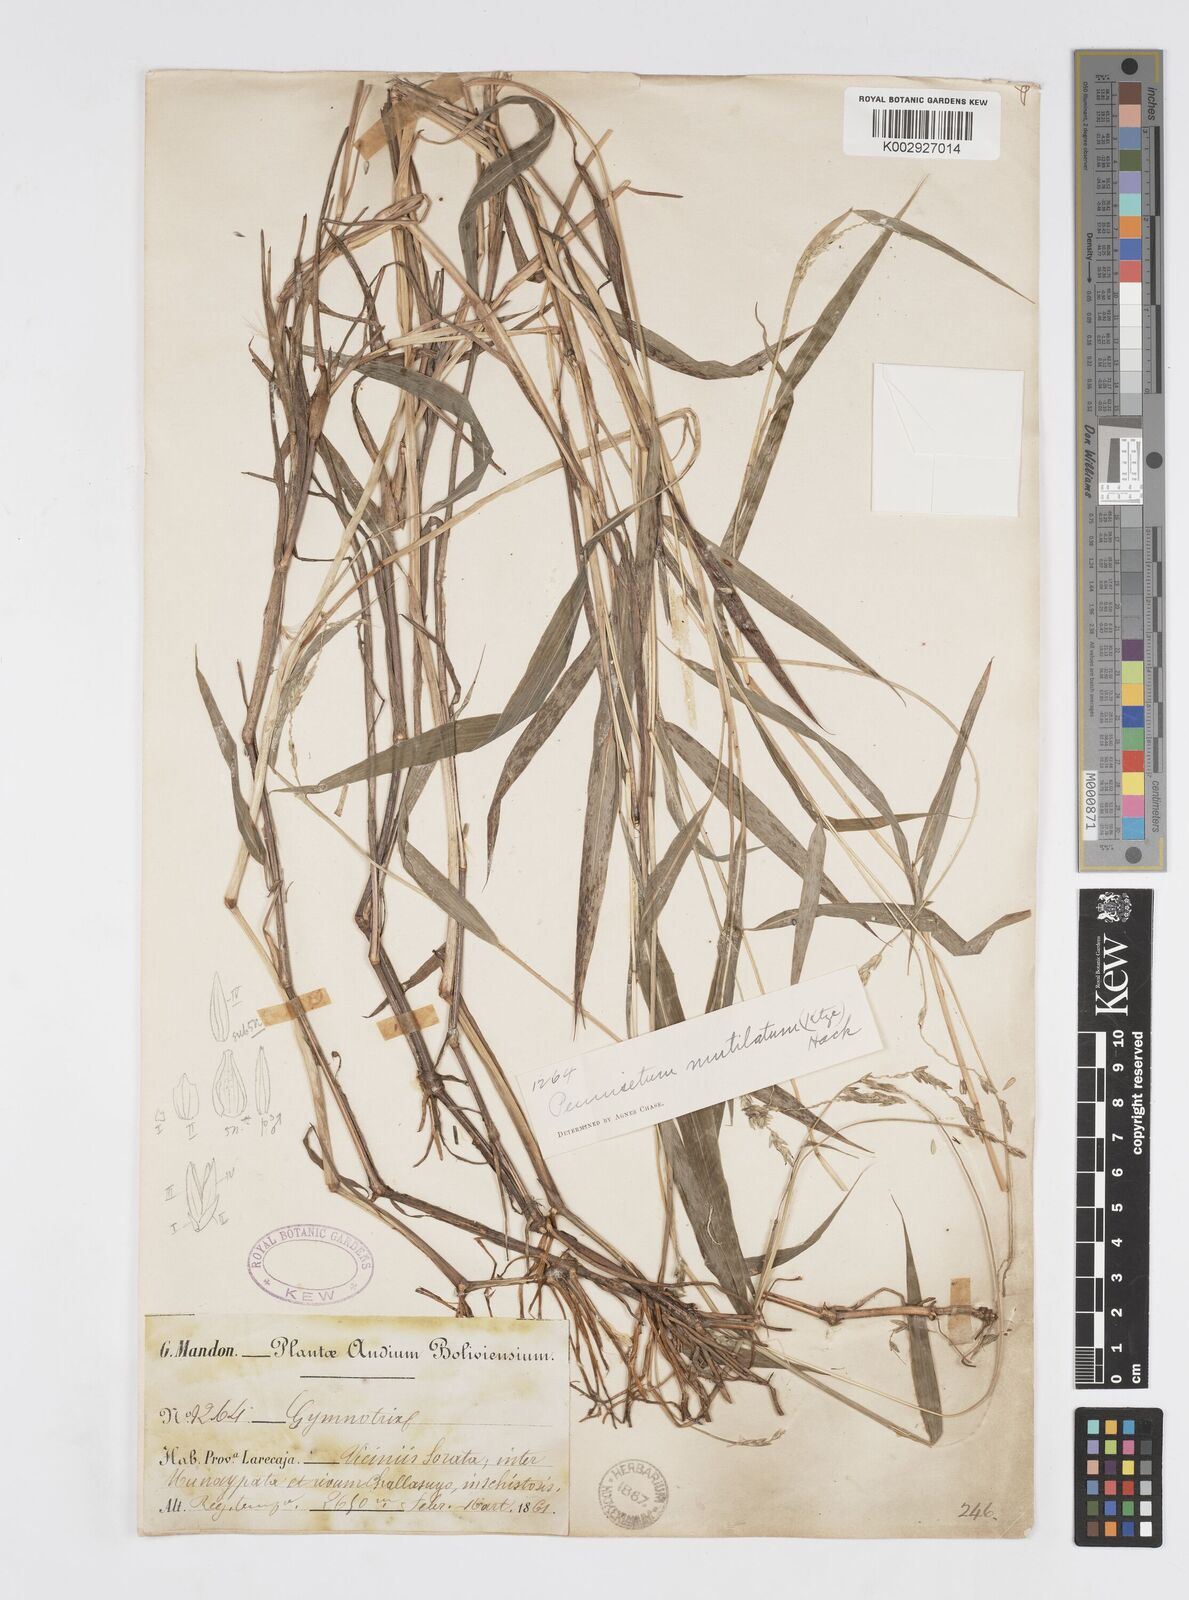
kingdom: Plantae
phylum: Tracheophyta
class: Liliopsida
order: Poales
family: Poaceae
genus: Cenchrus
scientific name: Cenchrus mutilatus
